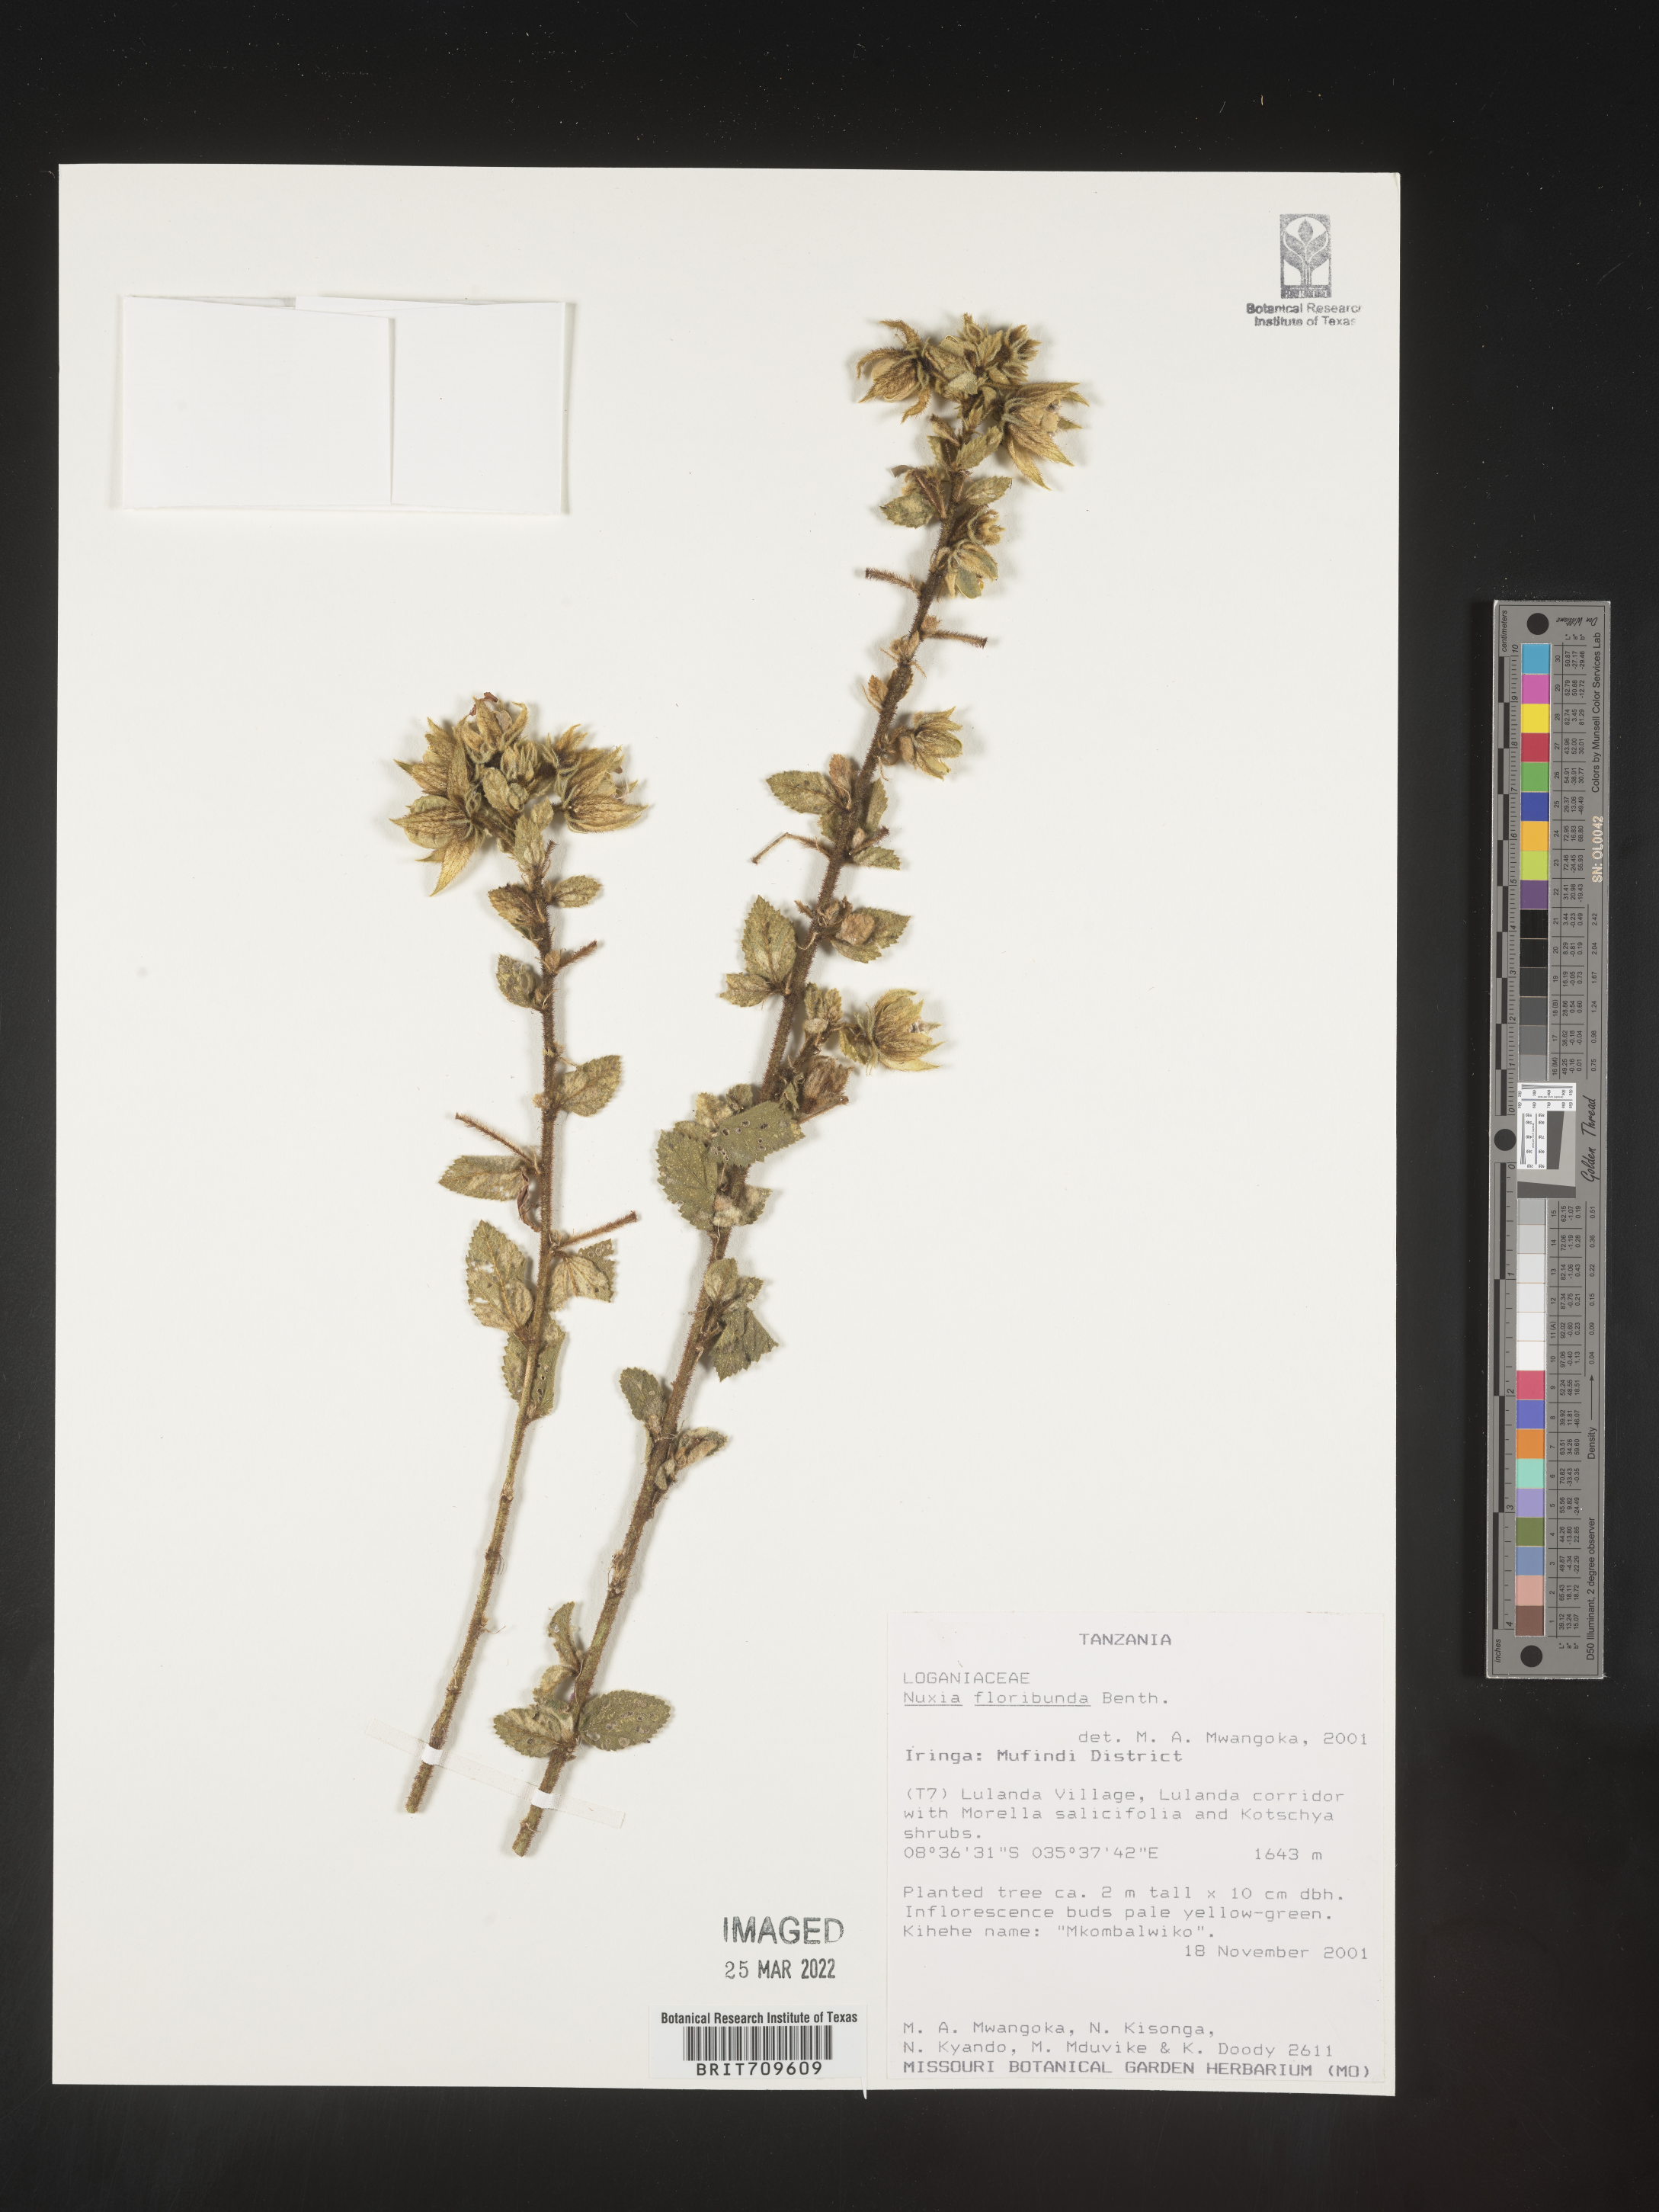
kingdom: Plantae
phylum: Tracheophyta
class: Magnoliopsida
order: Lamiales
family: Stilbaceae
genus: Nuxia
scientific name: Nuxia
